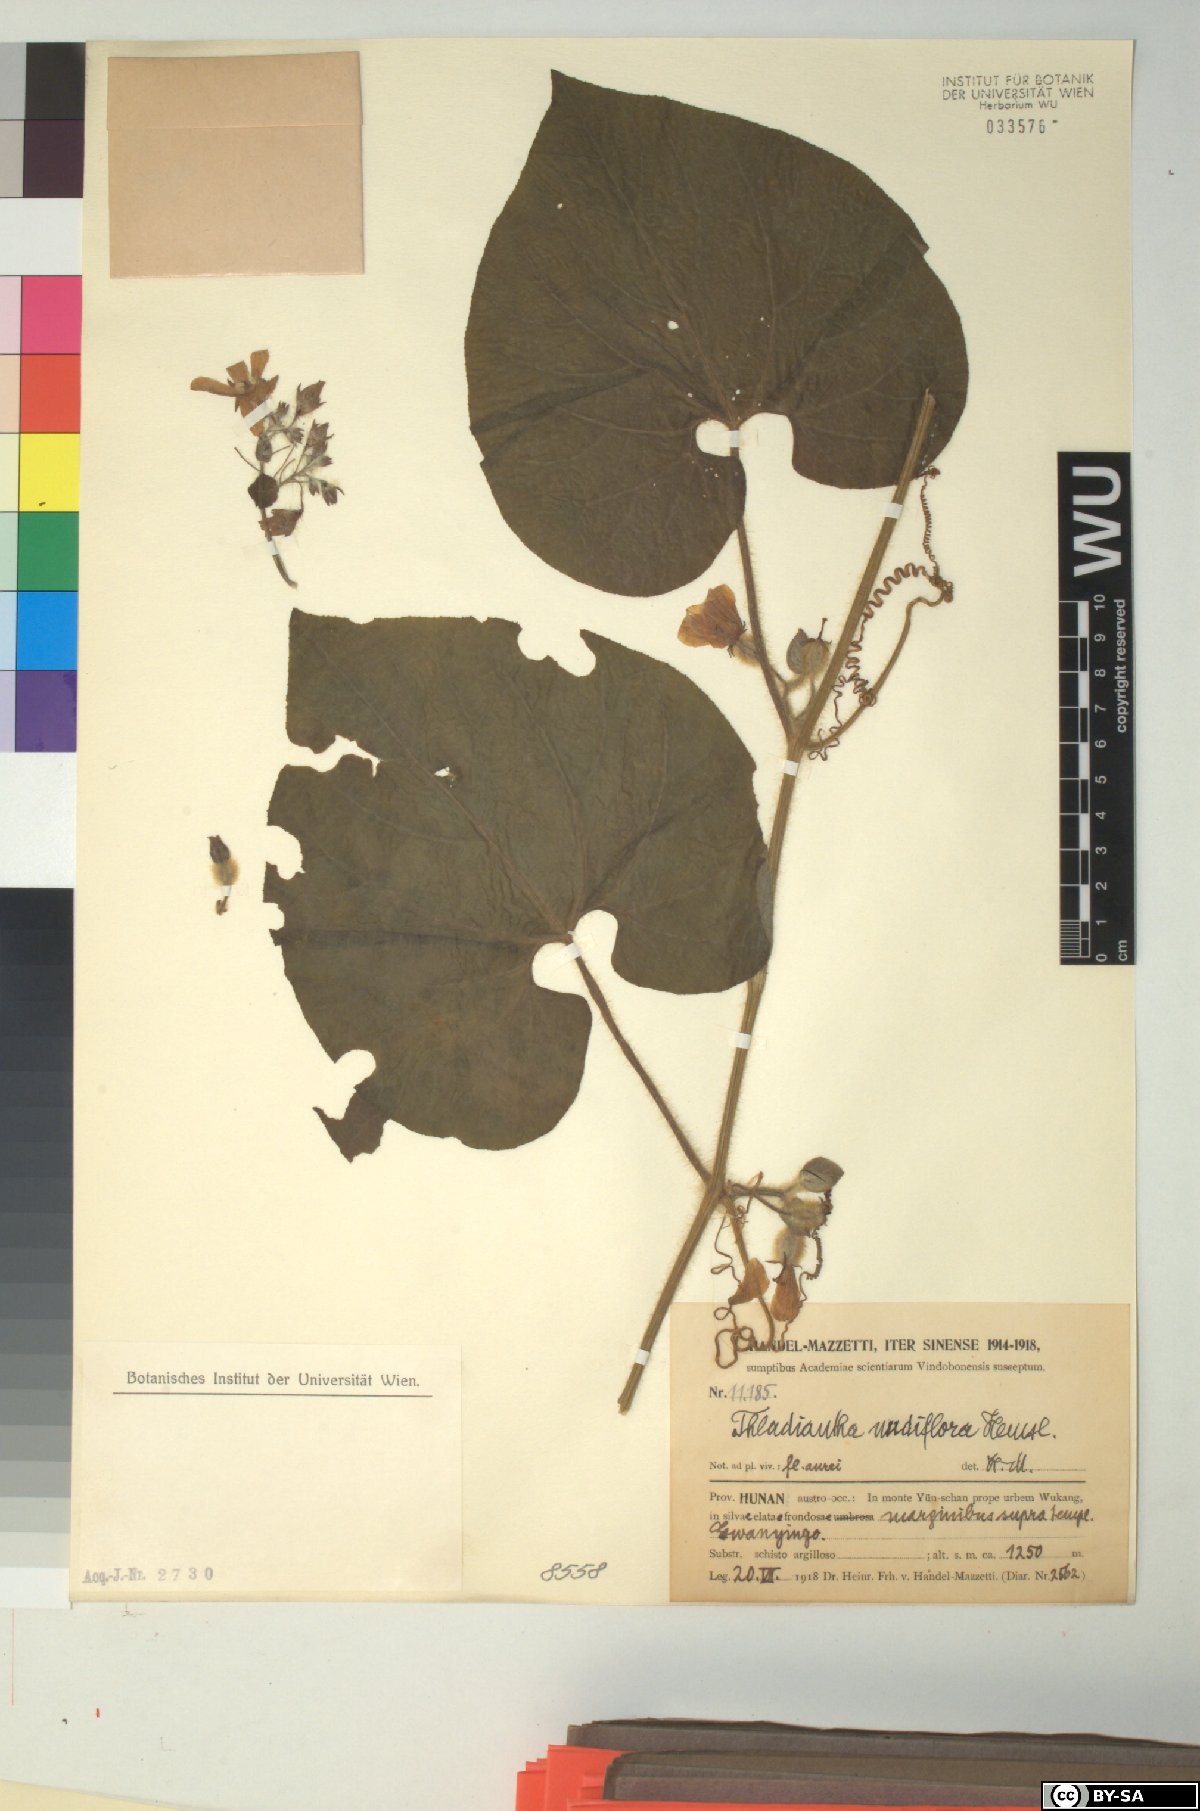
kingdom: Plantae
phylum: Tracheophyta
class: Magnoliopsida
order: Cucurbitales
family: Cucurbitaceae
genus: Thladiantha
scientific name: Thladiantha nudiflora
